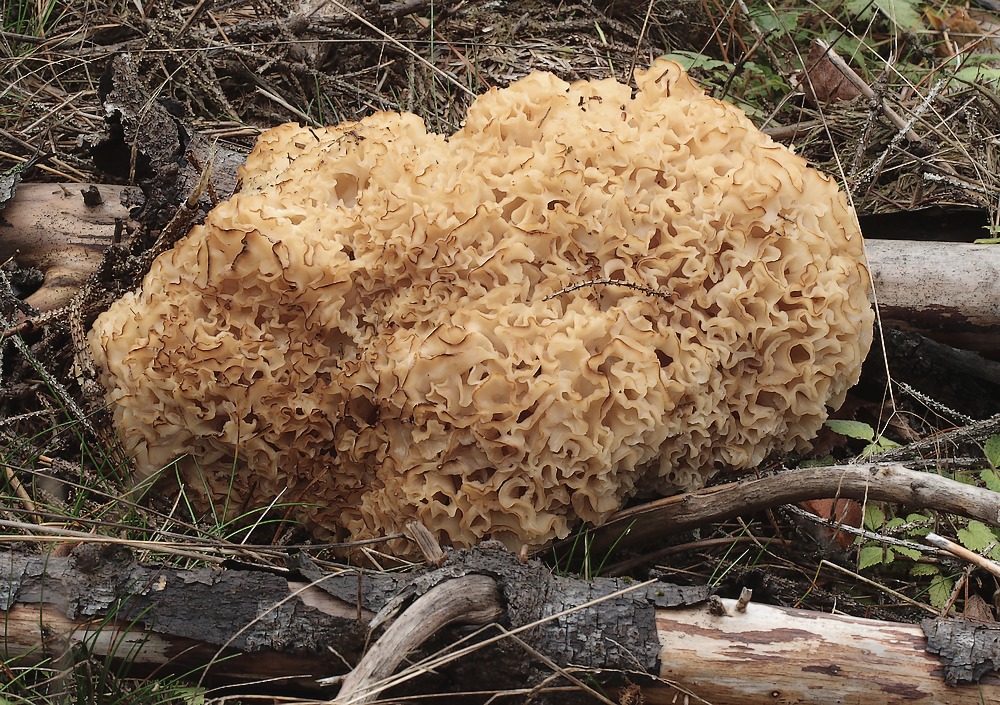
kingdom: Fungi
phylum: Basidiomycota
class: Agaricomycetes
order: Polyporales
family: Sparassidaceae
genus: Sparassis
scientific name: Sparassis crispa
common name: kruset blomkålssvamp
